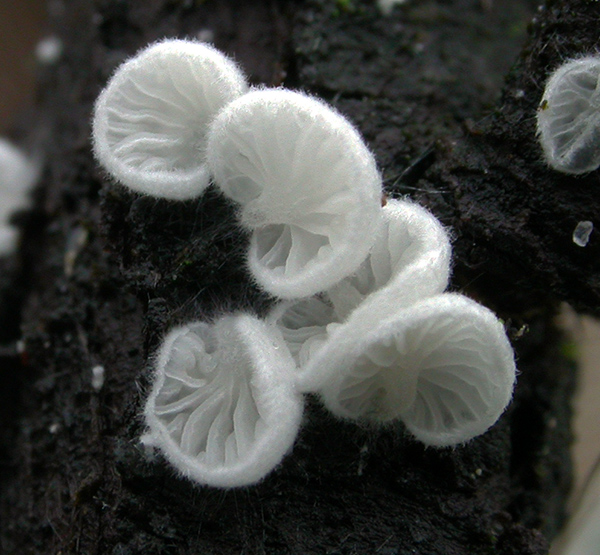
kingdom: Fungi
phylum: Basidiomycota
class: Agaricomycetes
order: Agaricales
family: Entolomataceae
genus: Clitopilus
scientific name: Clitopilus hobsonii
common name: Miller's oysterling
